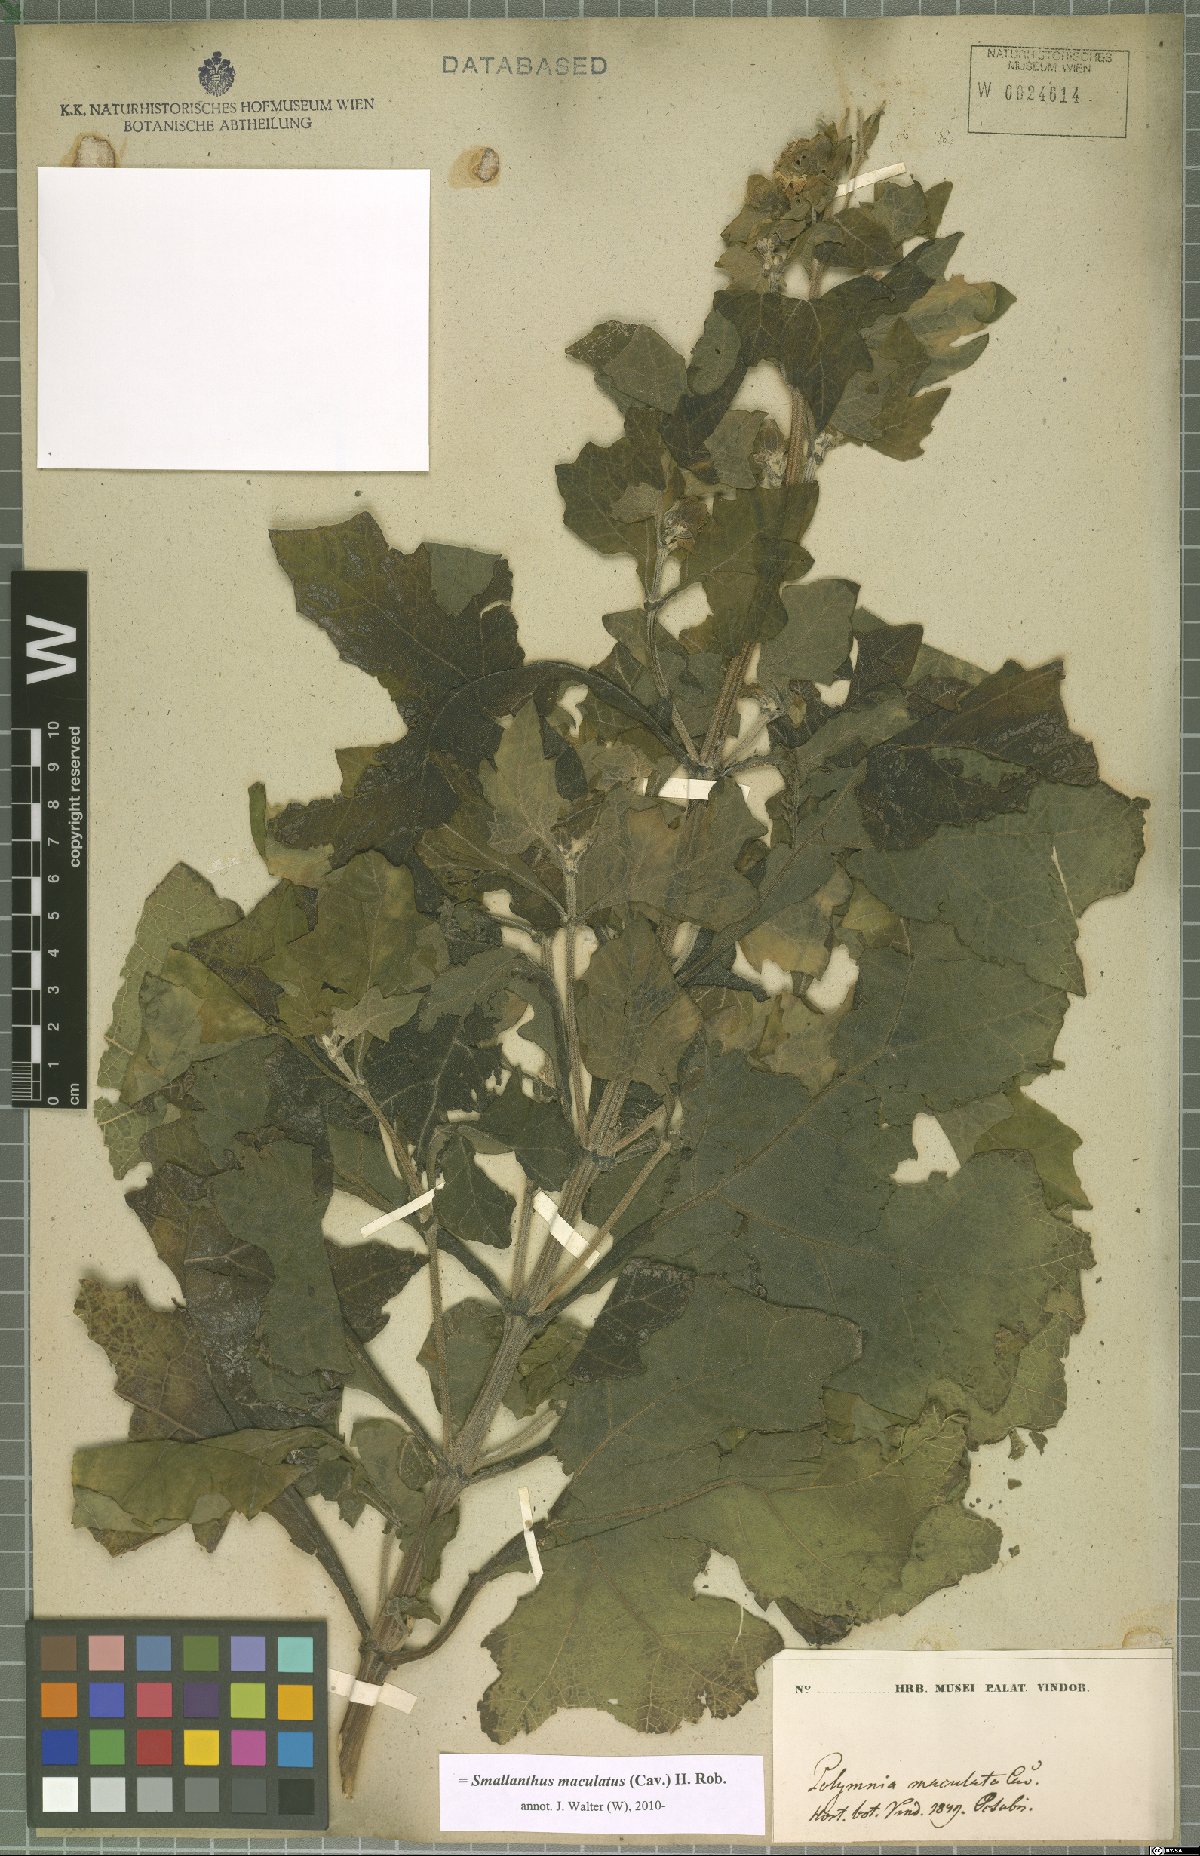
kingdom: Plantae
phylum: Tracheophyta
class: Magnoliopsida
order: Asterales
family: Asteraceae
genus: Smallanthus
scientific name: Smallanthus maculatus
